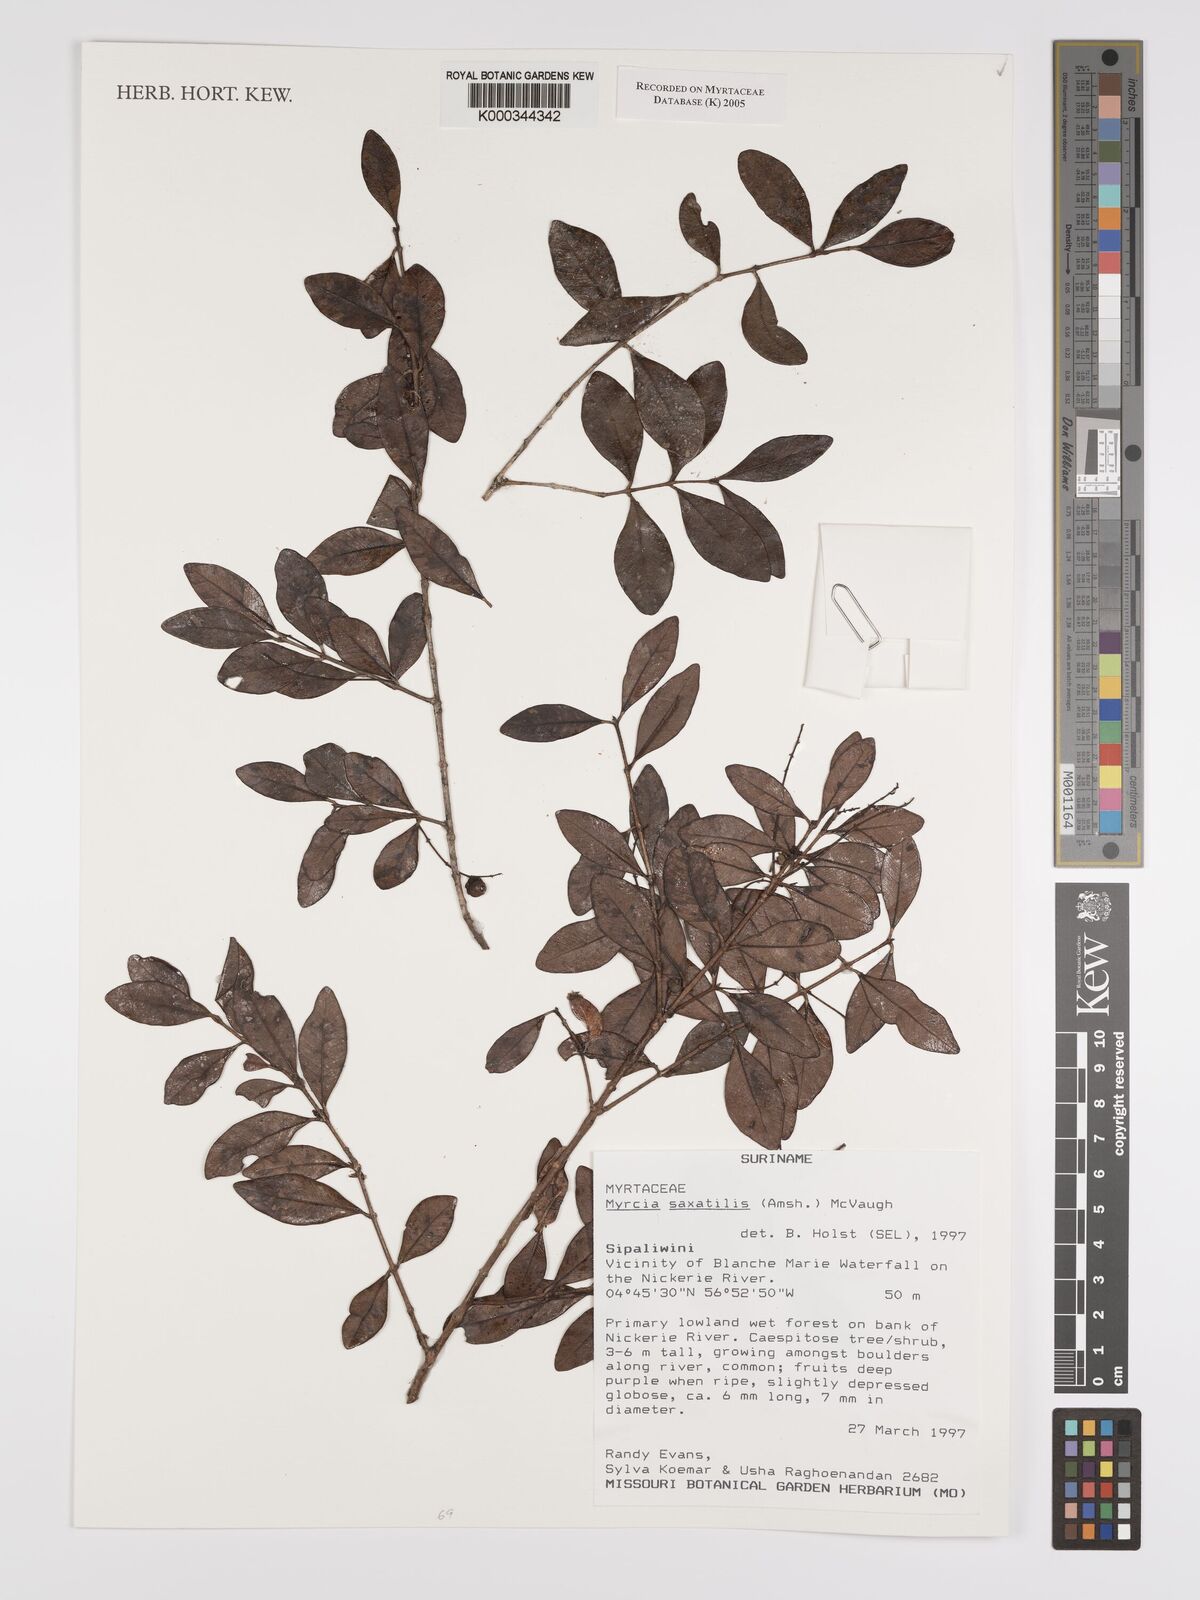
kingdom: Plantae
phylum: Tracheophyta
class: Magnoliopsida
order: Myrtales
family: Myrtaceae
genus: Myrcia
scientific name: Myrcia saxatilis
